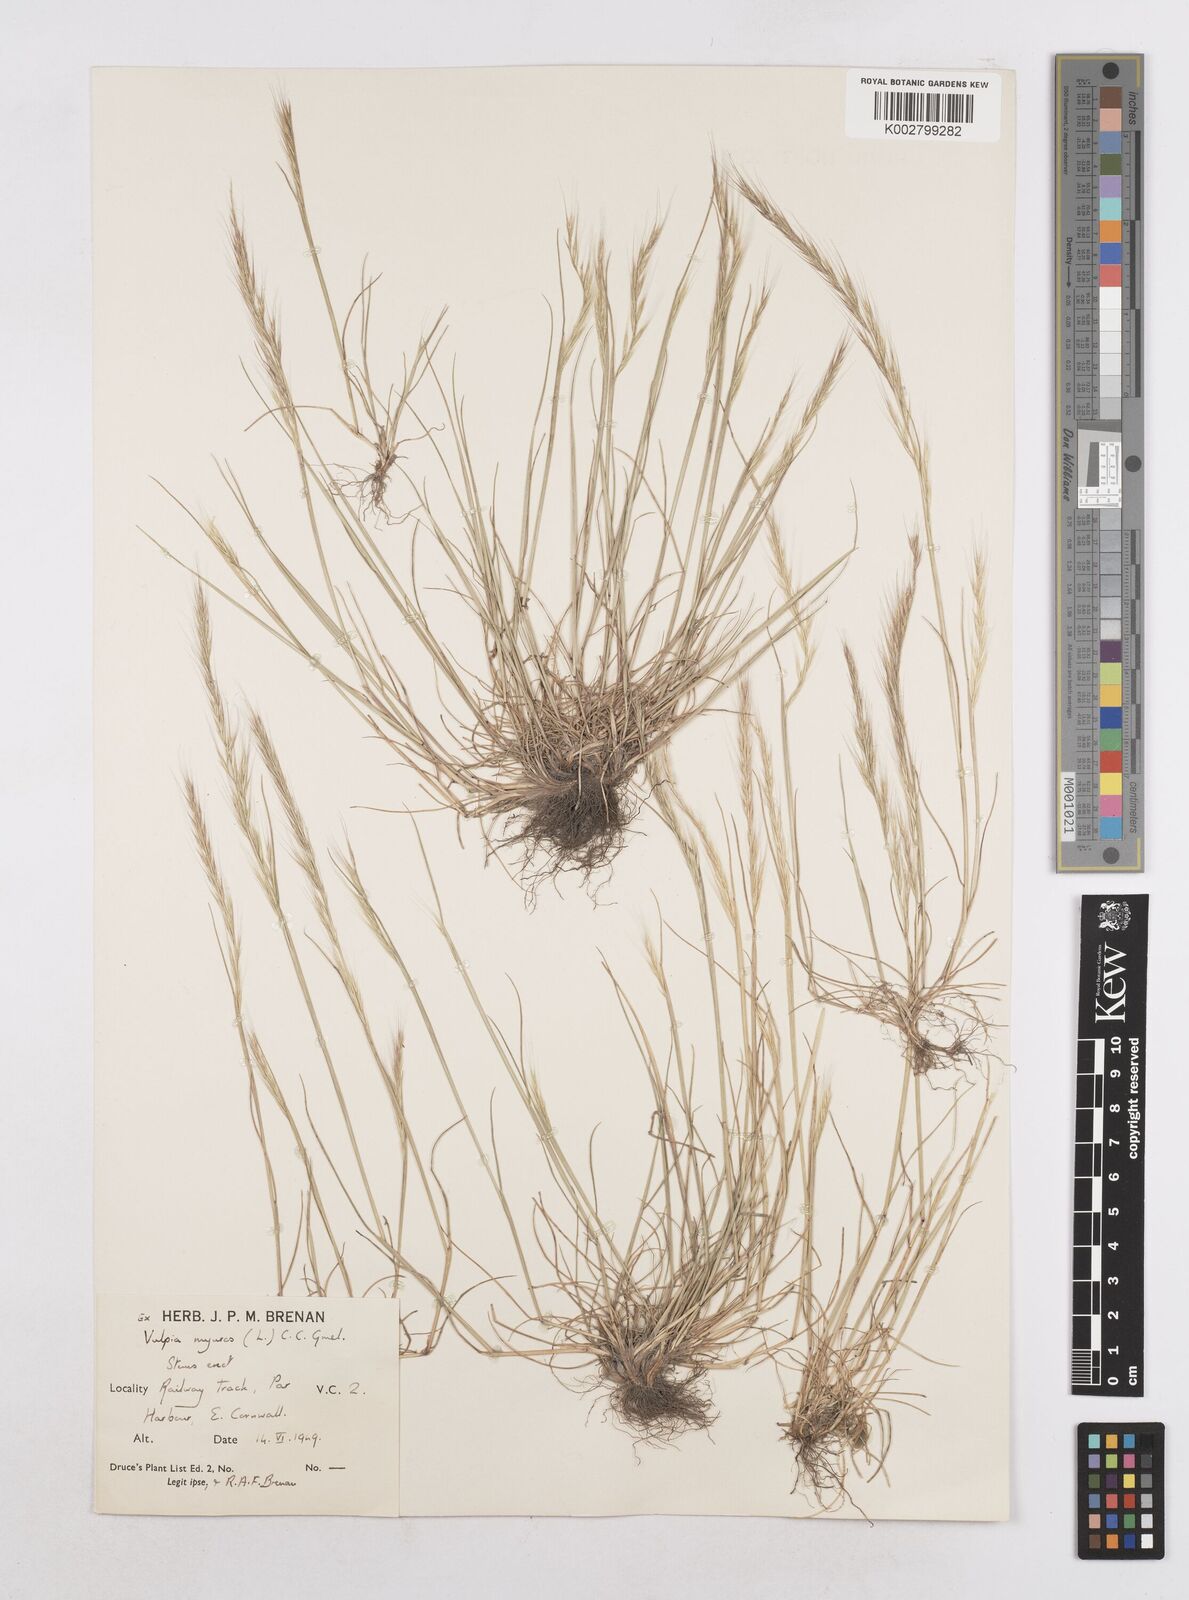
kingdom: Plantae
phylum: Tracheophyta
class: Liliopsida
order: Poales
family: Poaceae
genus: Festuca
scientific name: Festuca myuros
